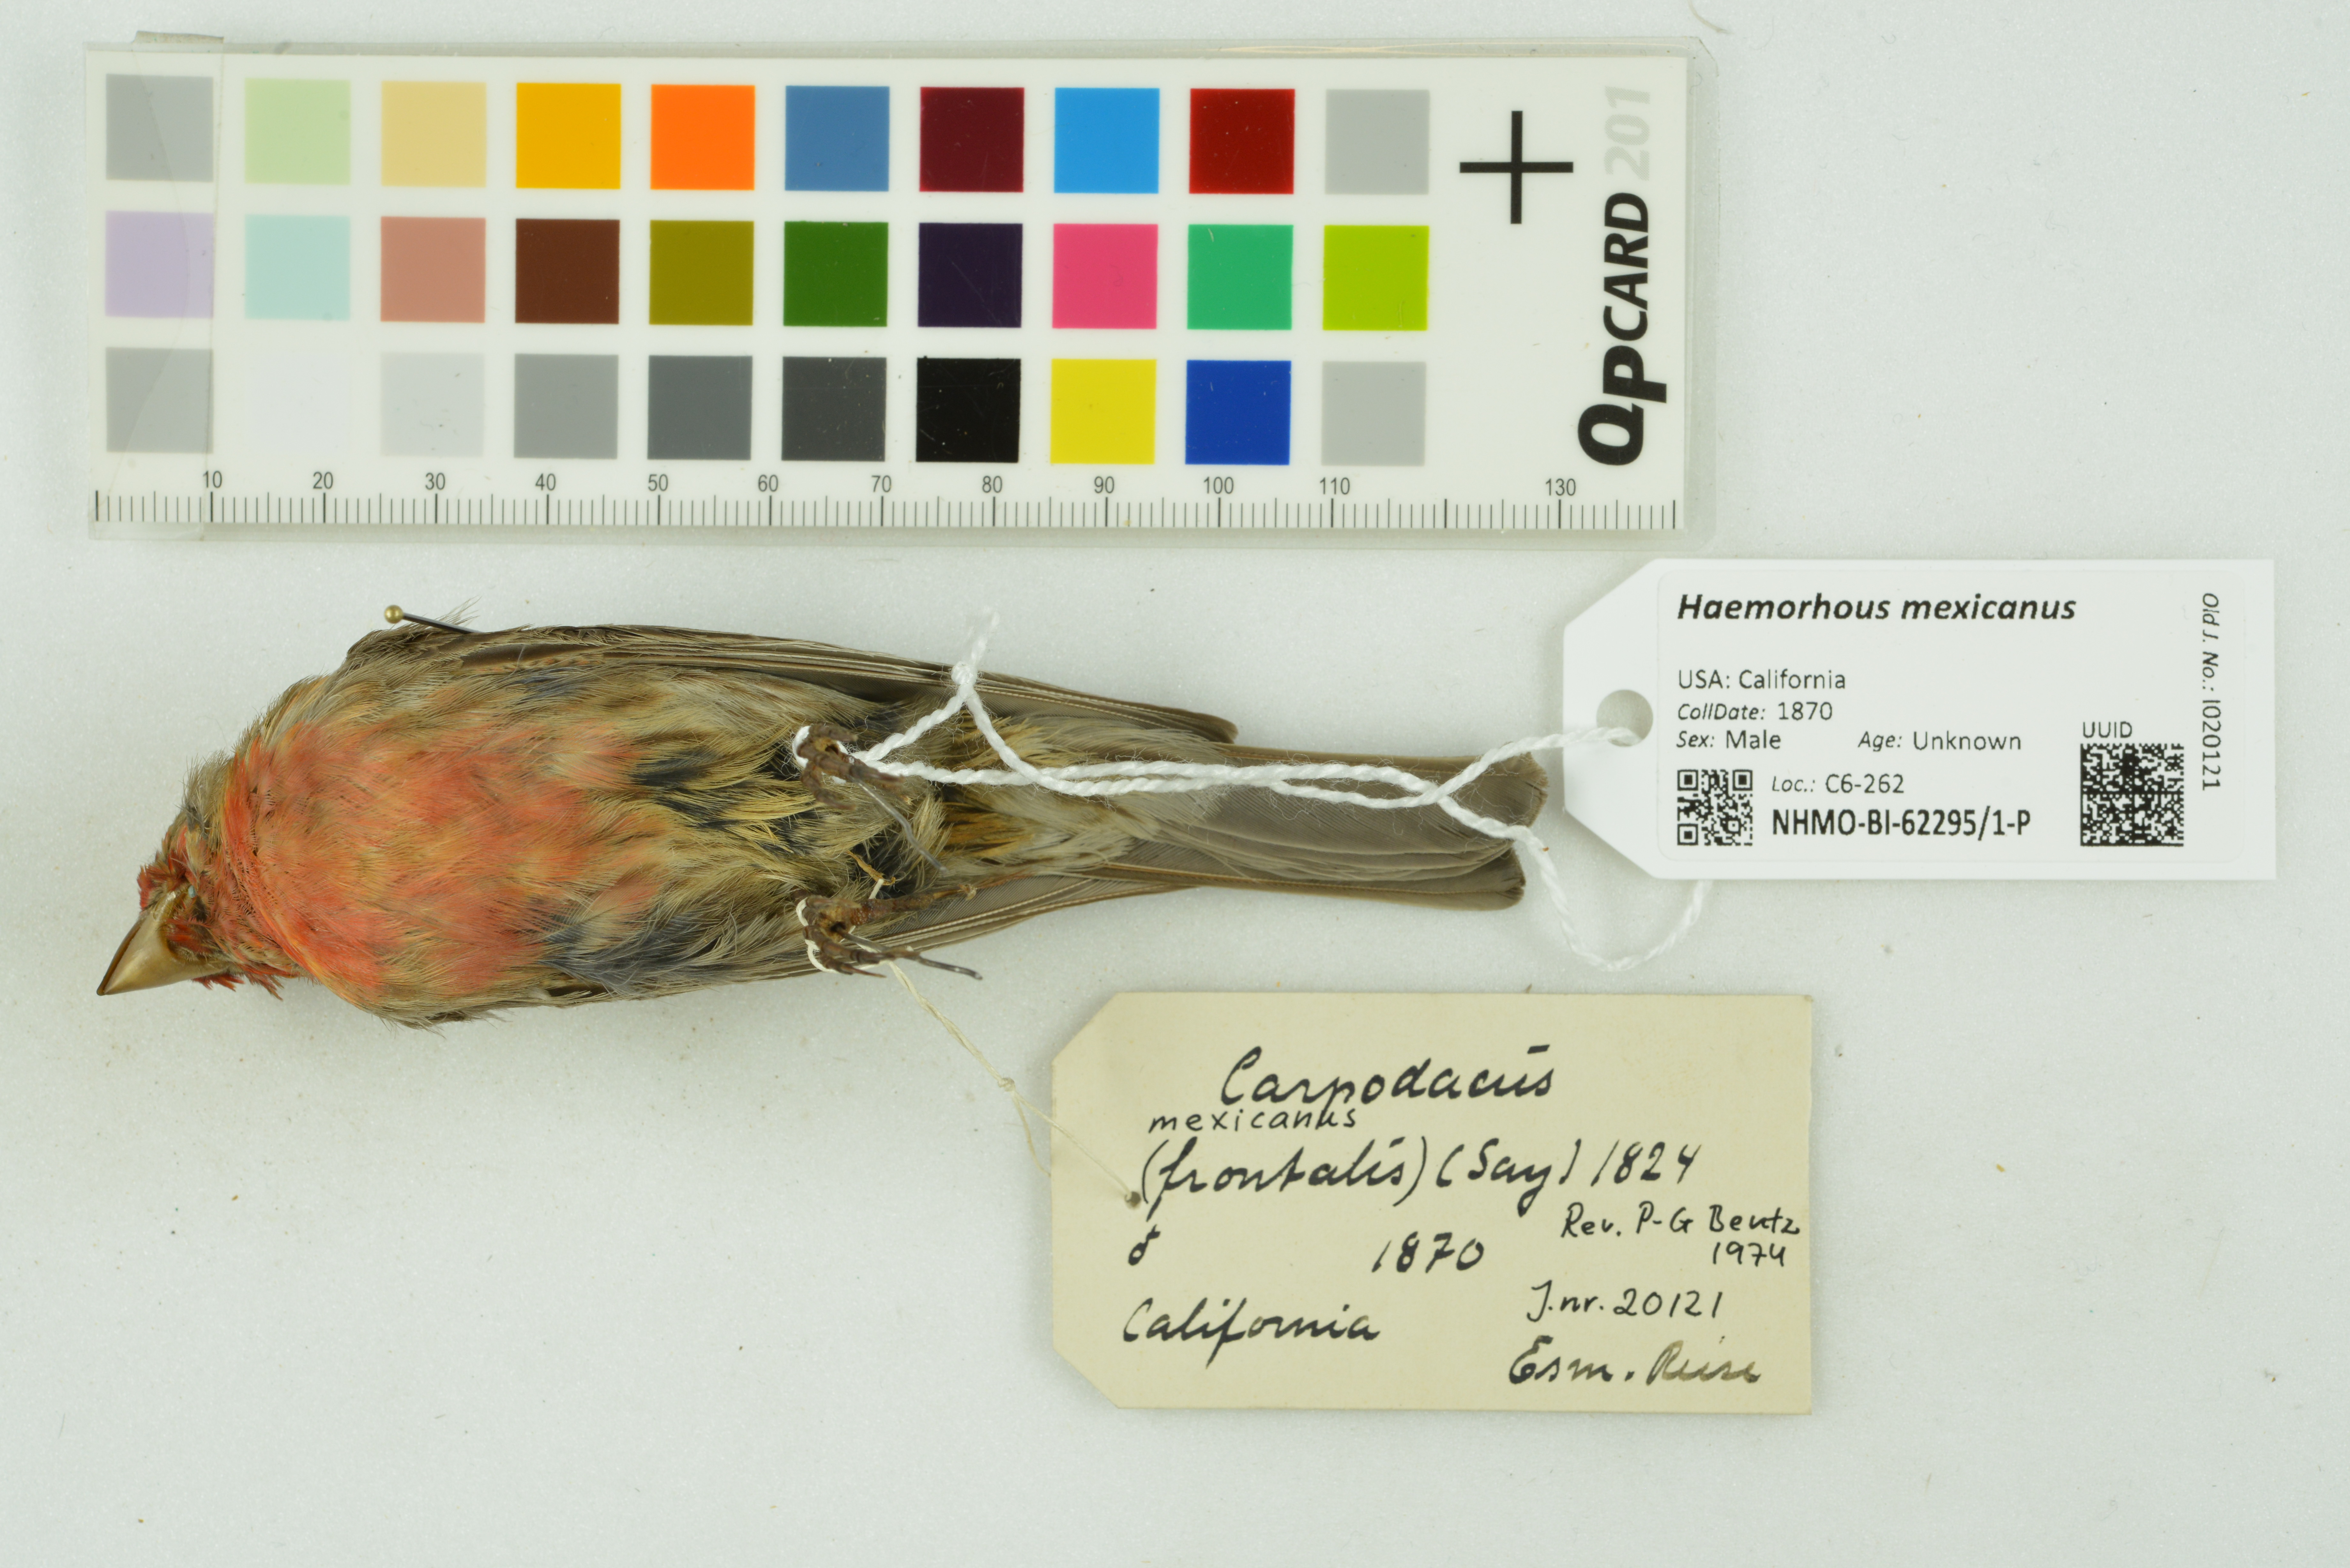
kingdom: Animalia
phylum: Chordata
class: Aves
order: Passeriformes
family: Fringillidae
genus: Haemorhous
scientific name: Haemorhous mexicanus
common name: House finch
